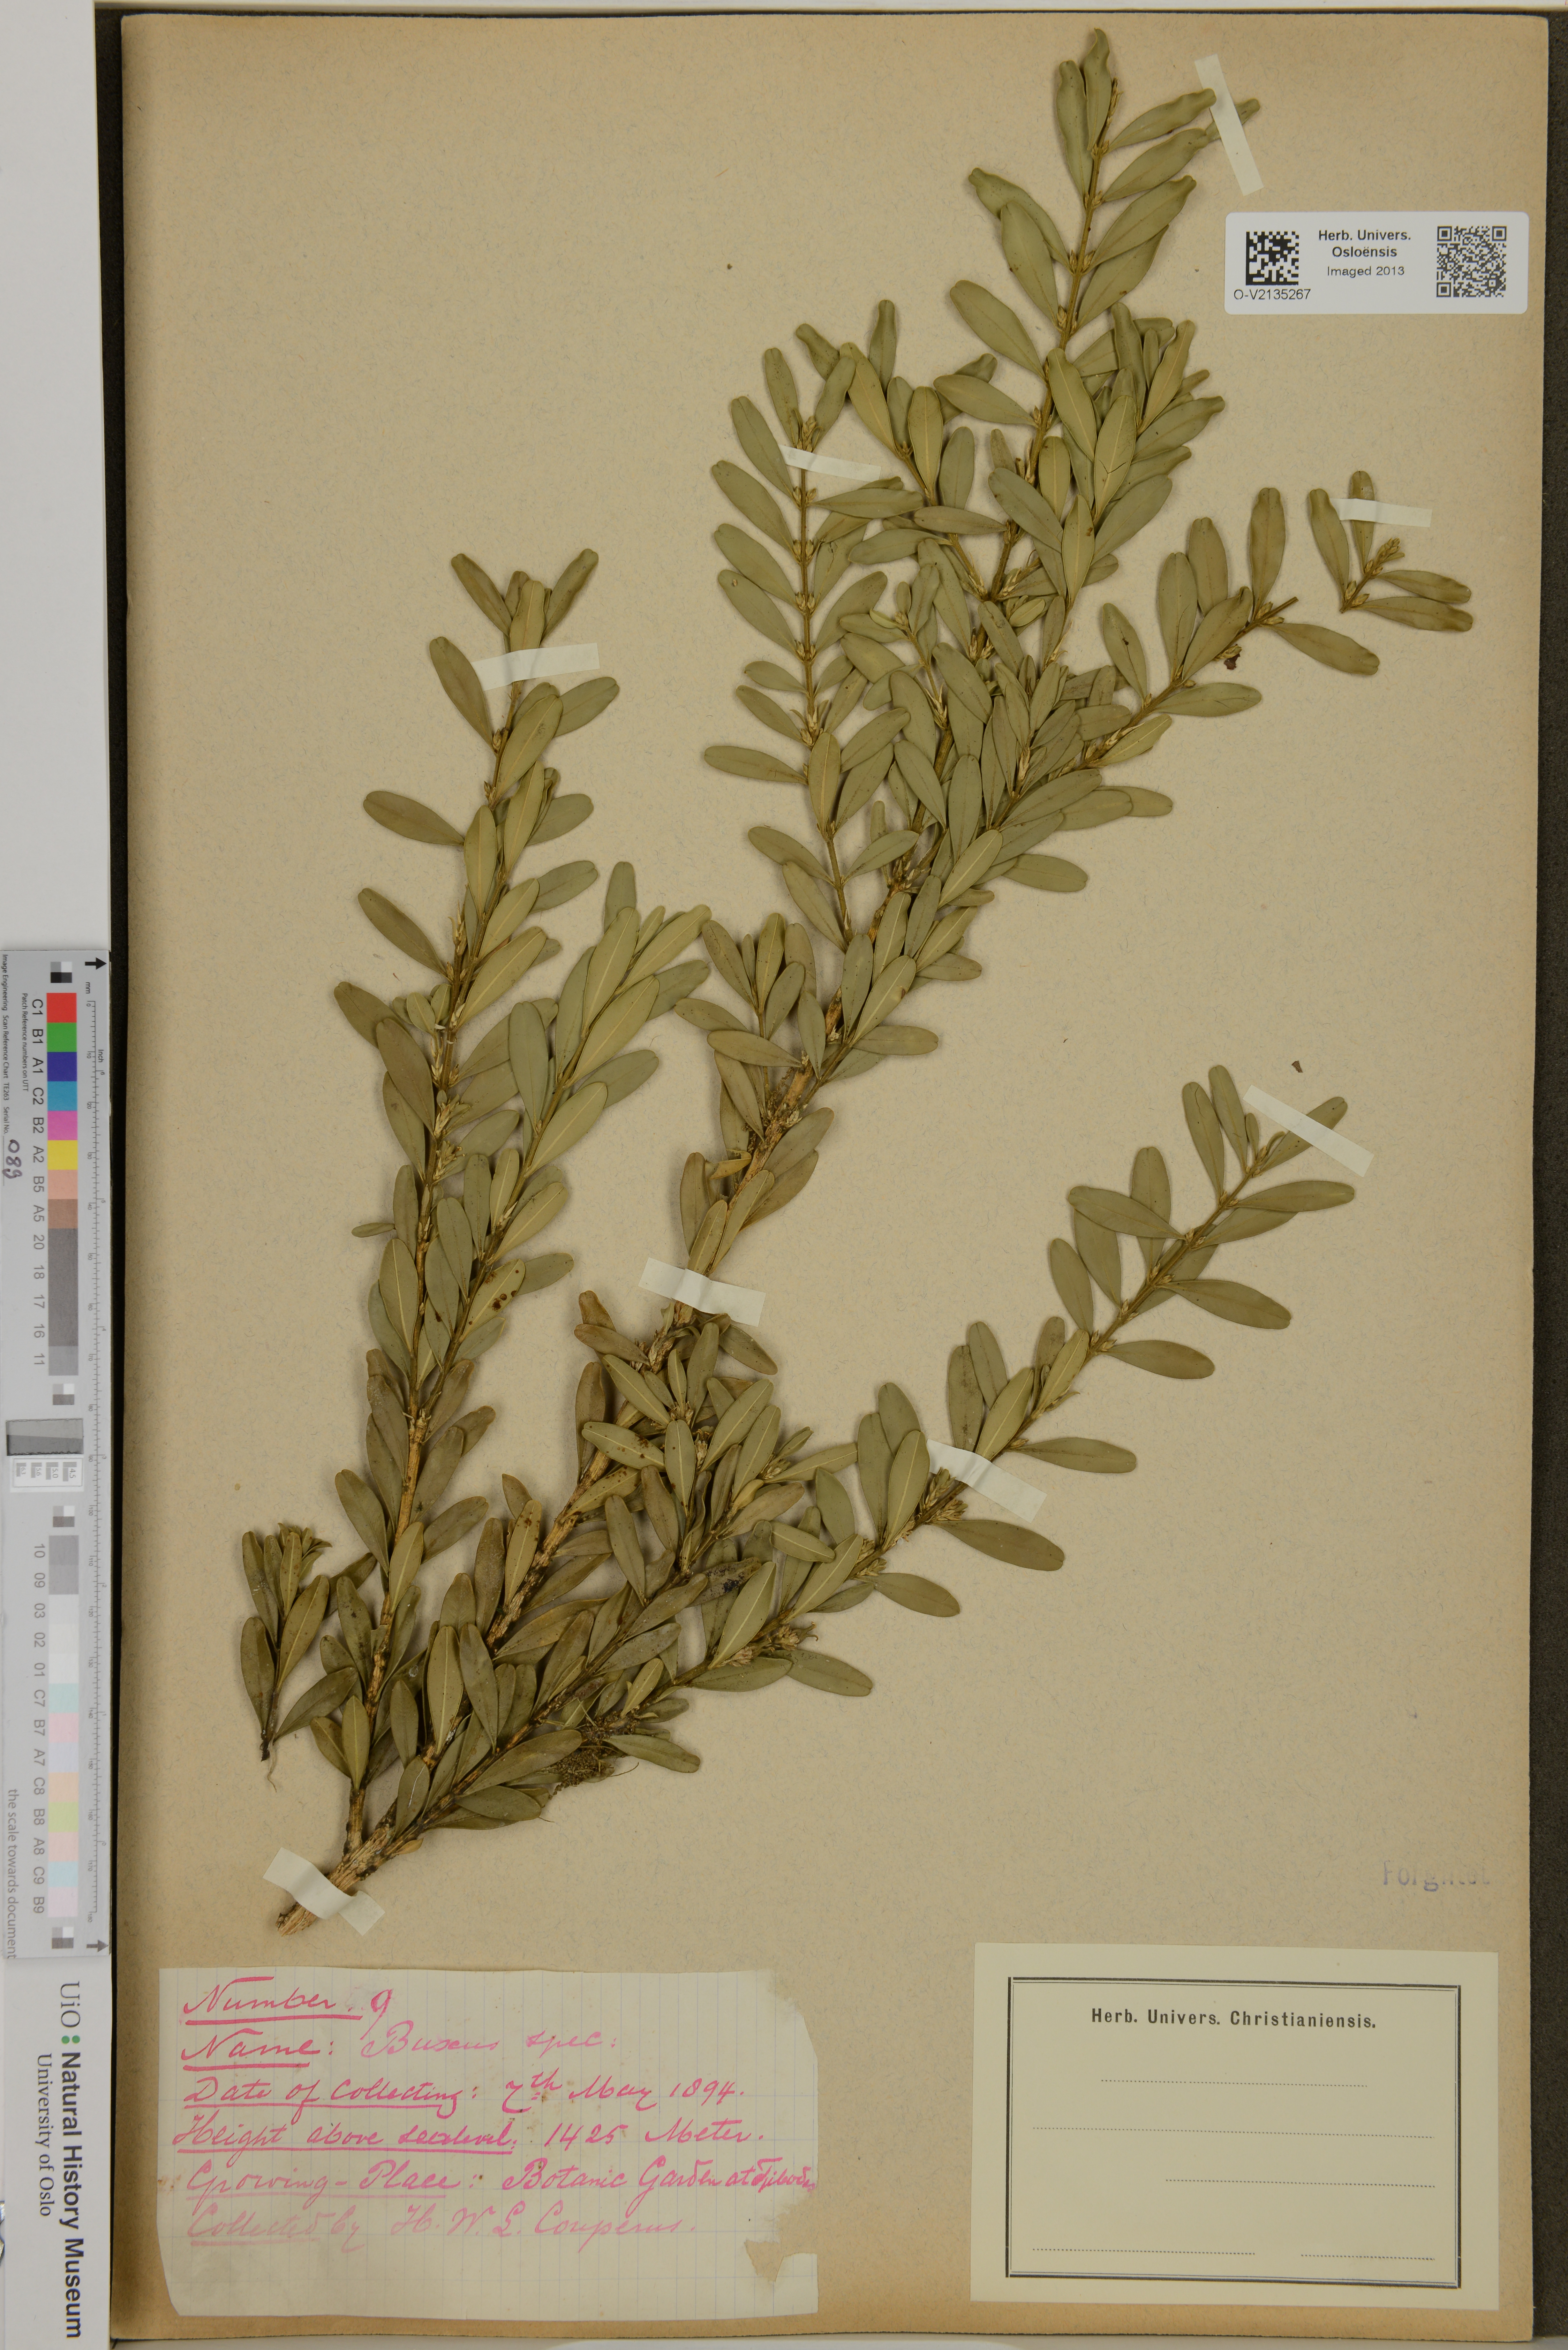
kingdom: Plantae
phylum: Tracheophyta
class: Magnoliopsida
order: Buxales
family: Buxaceae
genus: Buxus
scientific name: Buxus
